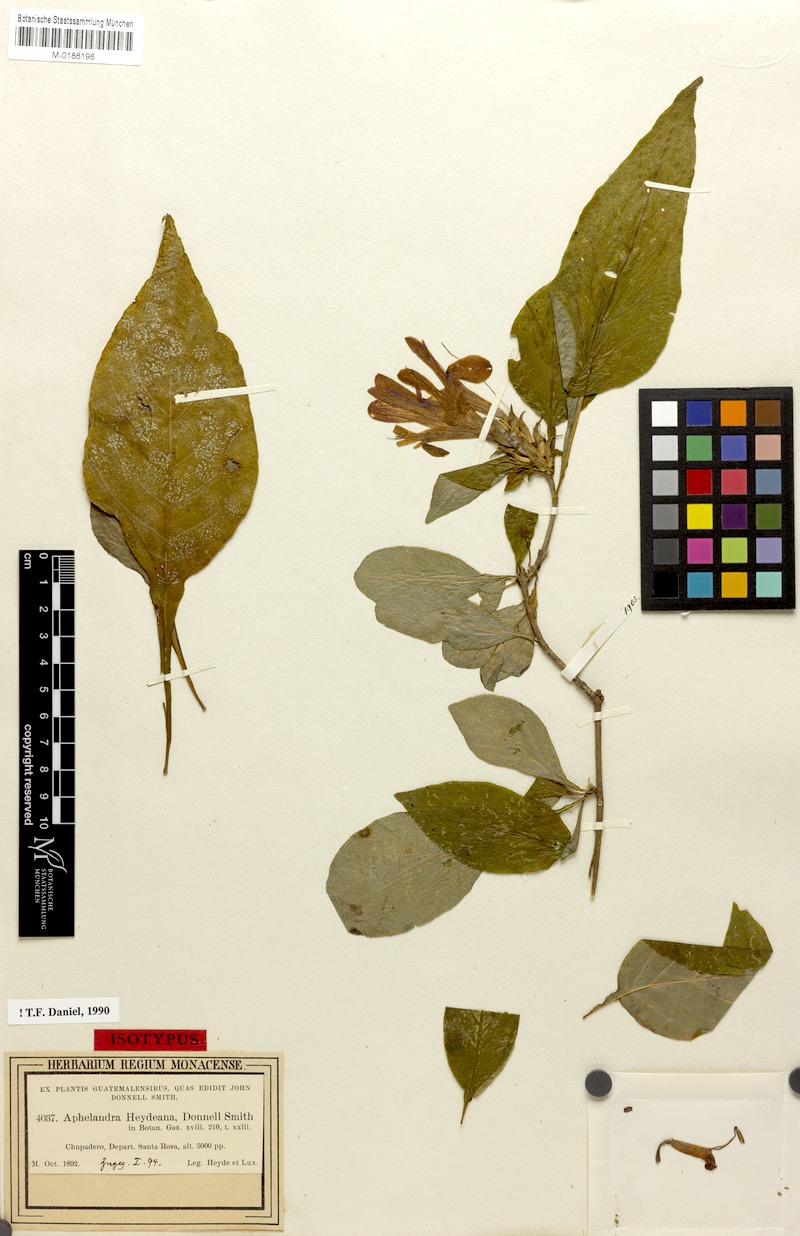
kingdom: Plantae
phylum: Tracheophyta
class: Magnoliopsida
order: Lamiales
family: Acanthaceae
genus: Aphelandra
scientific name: Aphelandra heydeana
